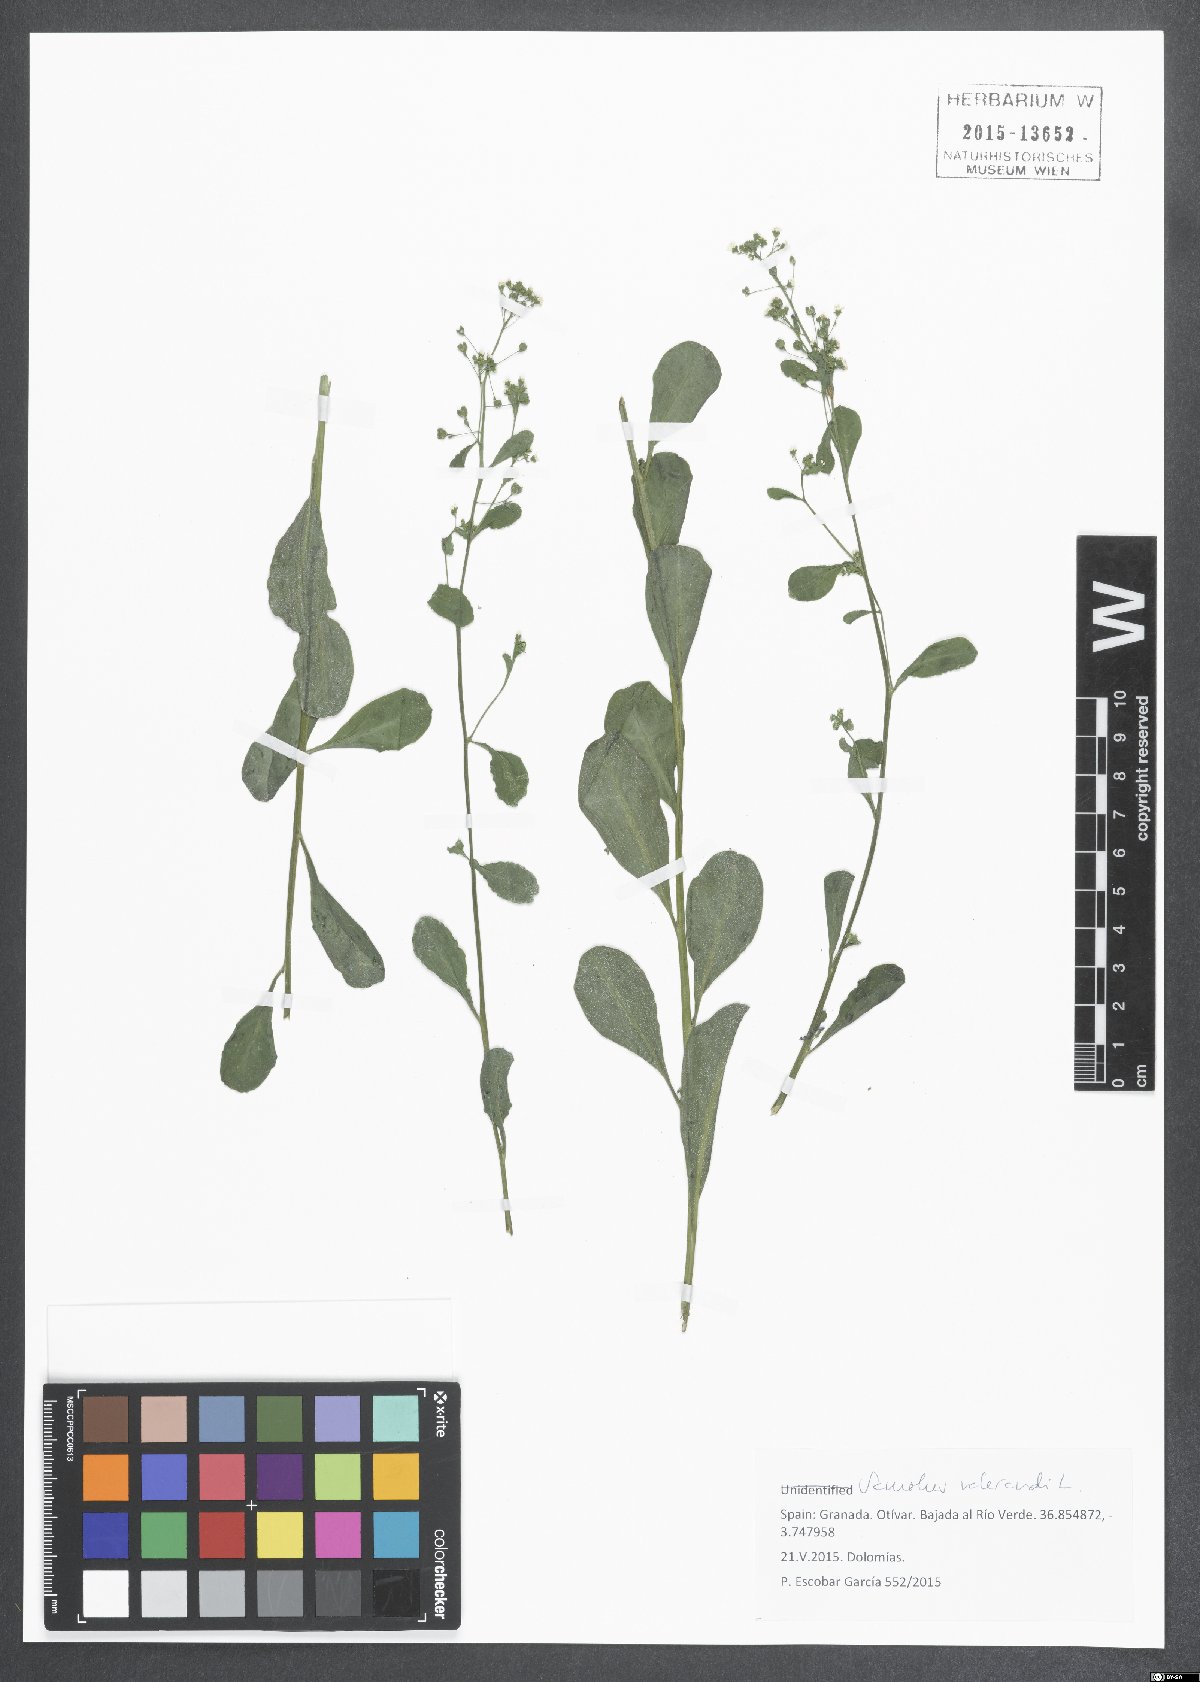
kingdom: Plantae
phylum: Tracheophyta
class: Magnoliopsida
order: Ericales
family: Primulaceae
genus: Samolus
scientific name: Samolus valerandi
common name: Brookweed
